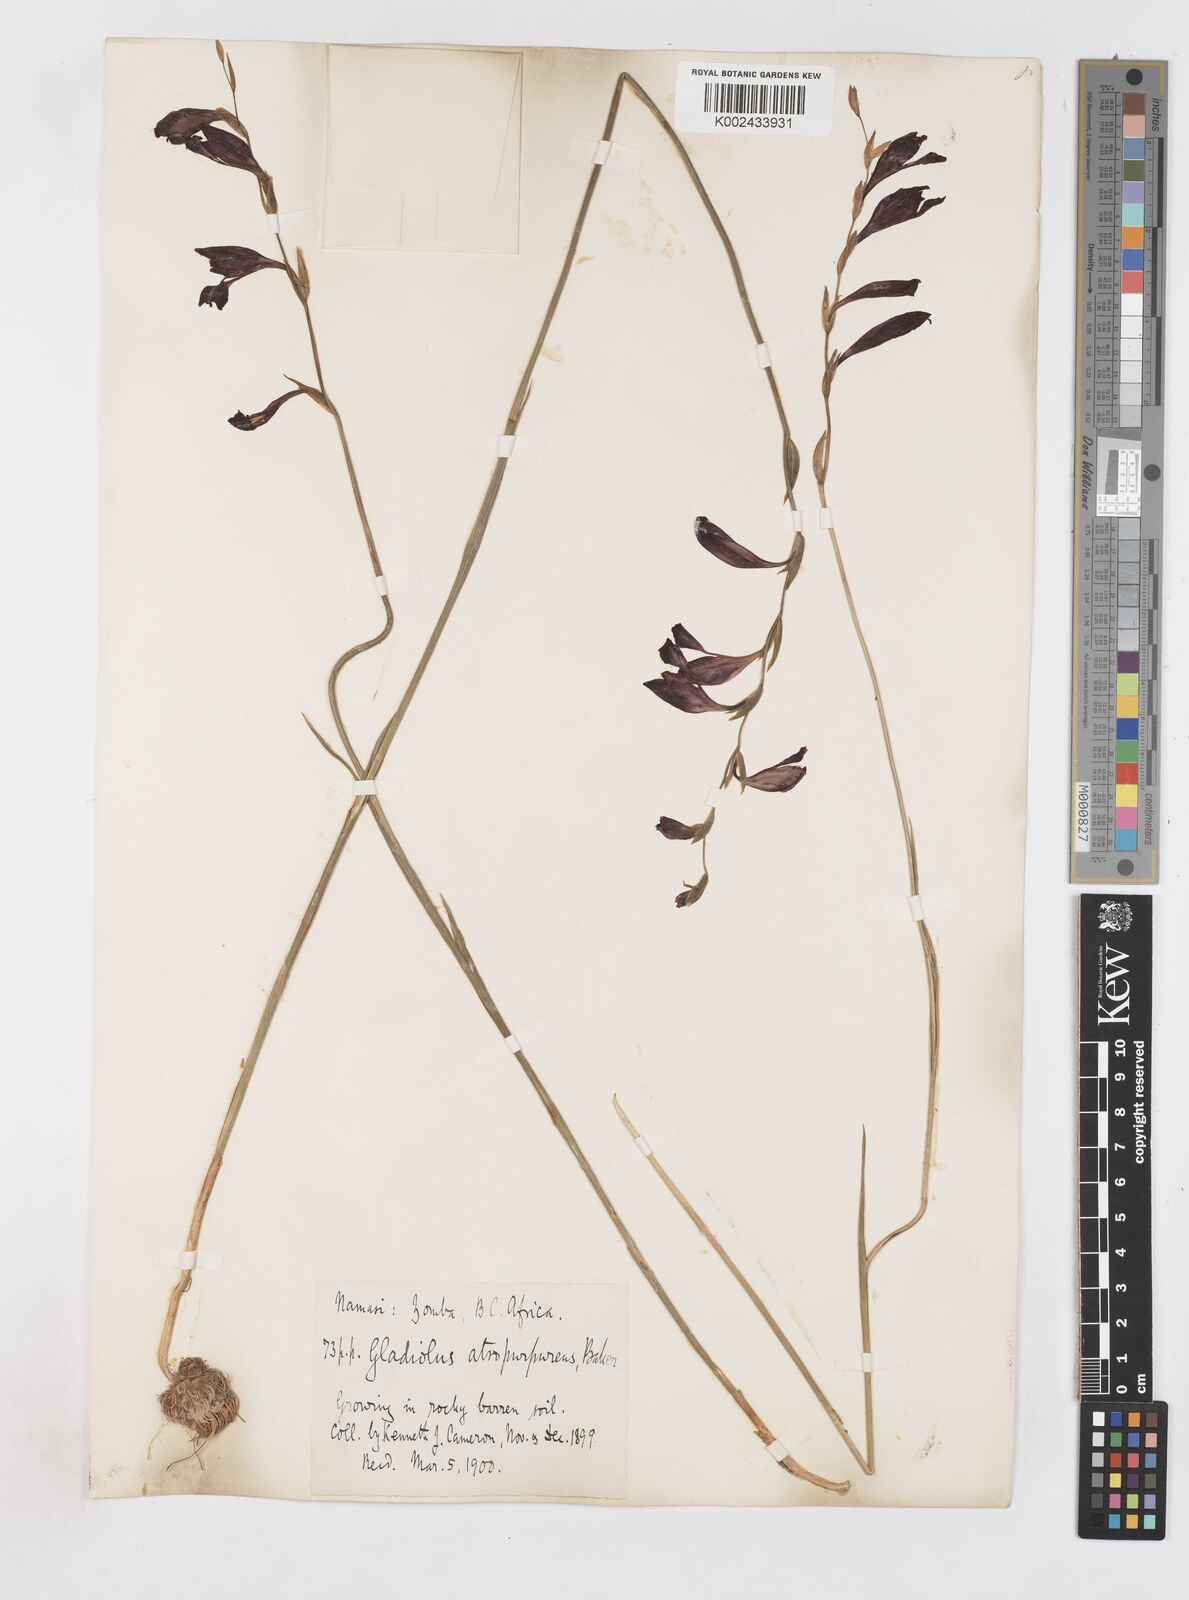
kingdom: Plantae
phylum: Tracheophyta
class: Liliopsida
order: Asparagales
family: Iridaceae
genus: Gladiolus
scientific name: Gladiolus atropurpureus
